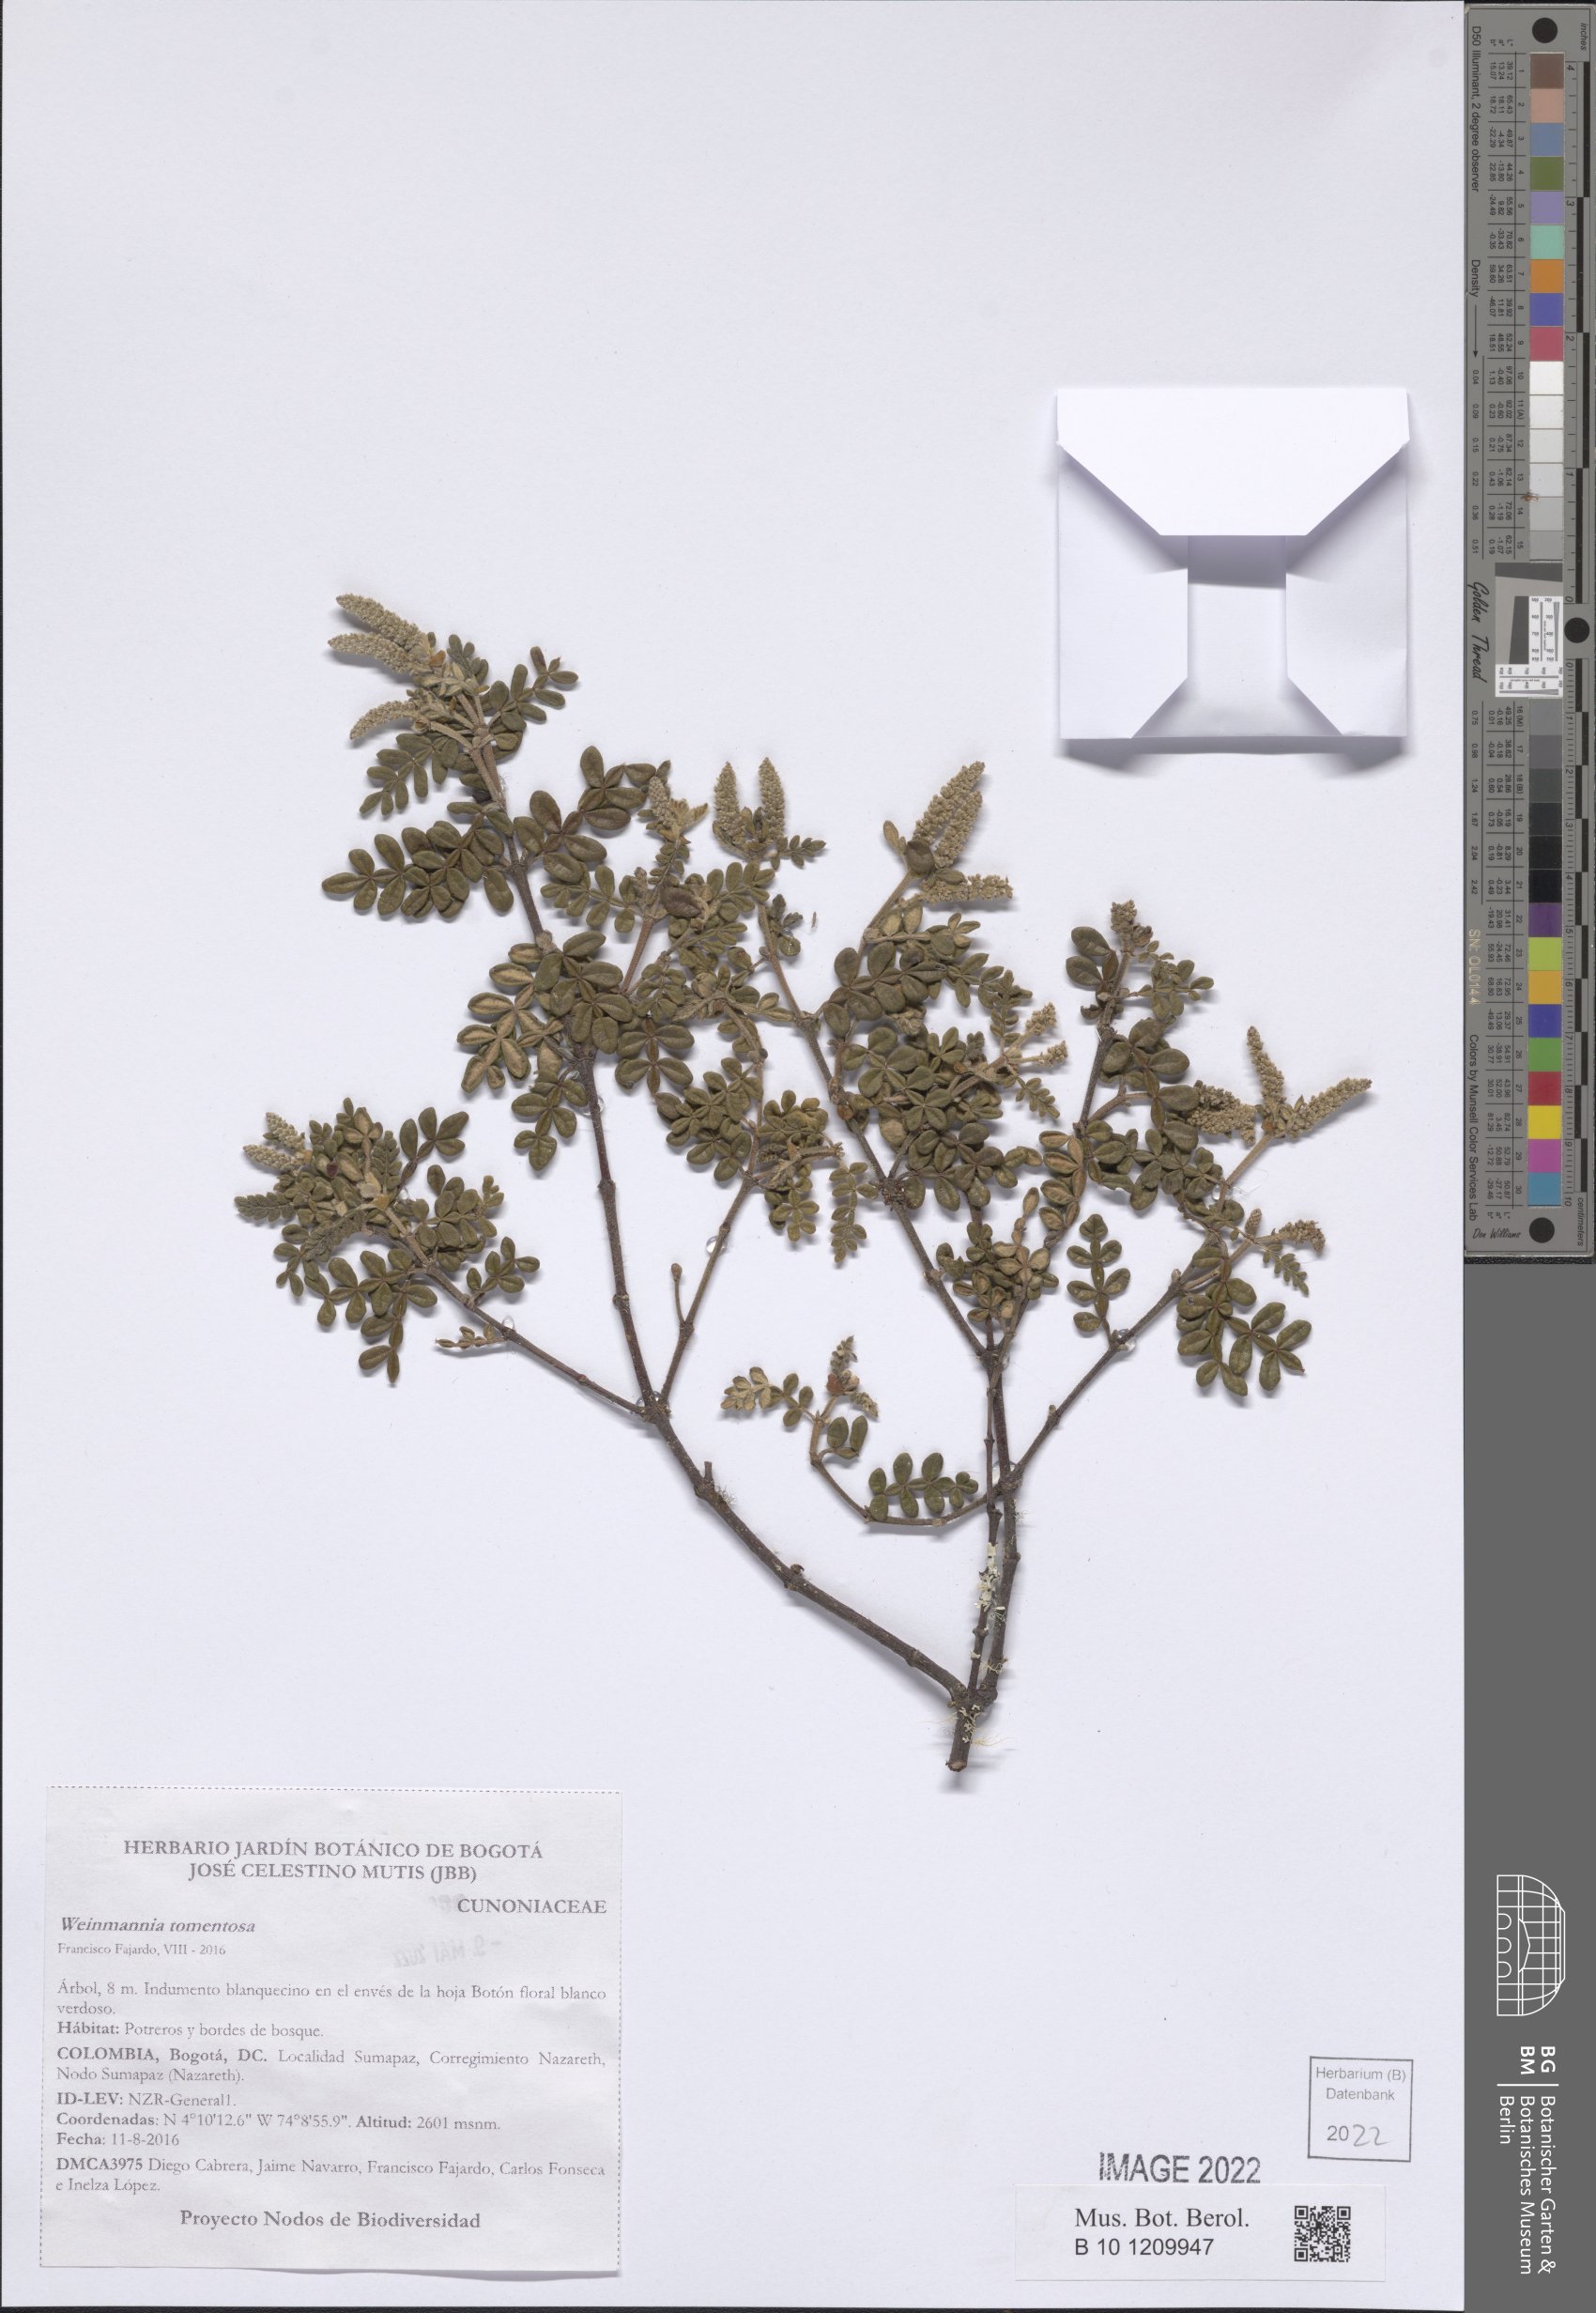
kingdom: Plantae
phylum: Tracheophyta
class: Magnoliopsida
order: Oxalidales
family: Cunoniaceae
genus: Weinmannia
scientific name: Weinmannia tomentosa
